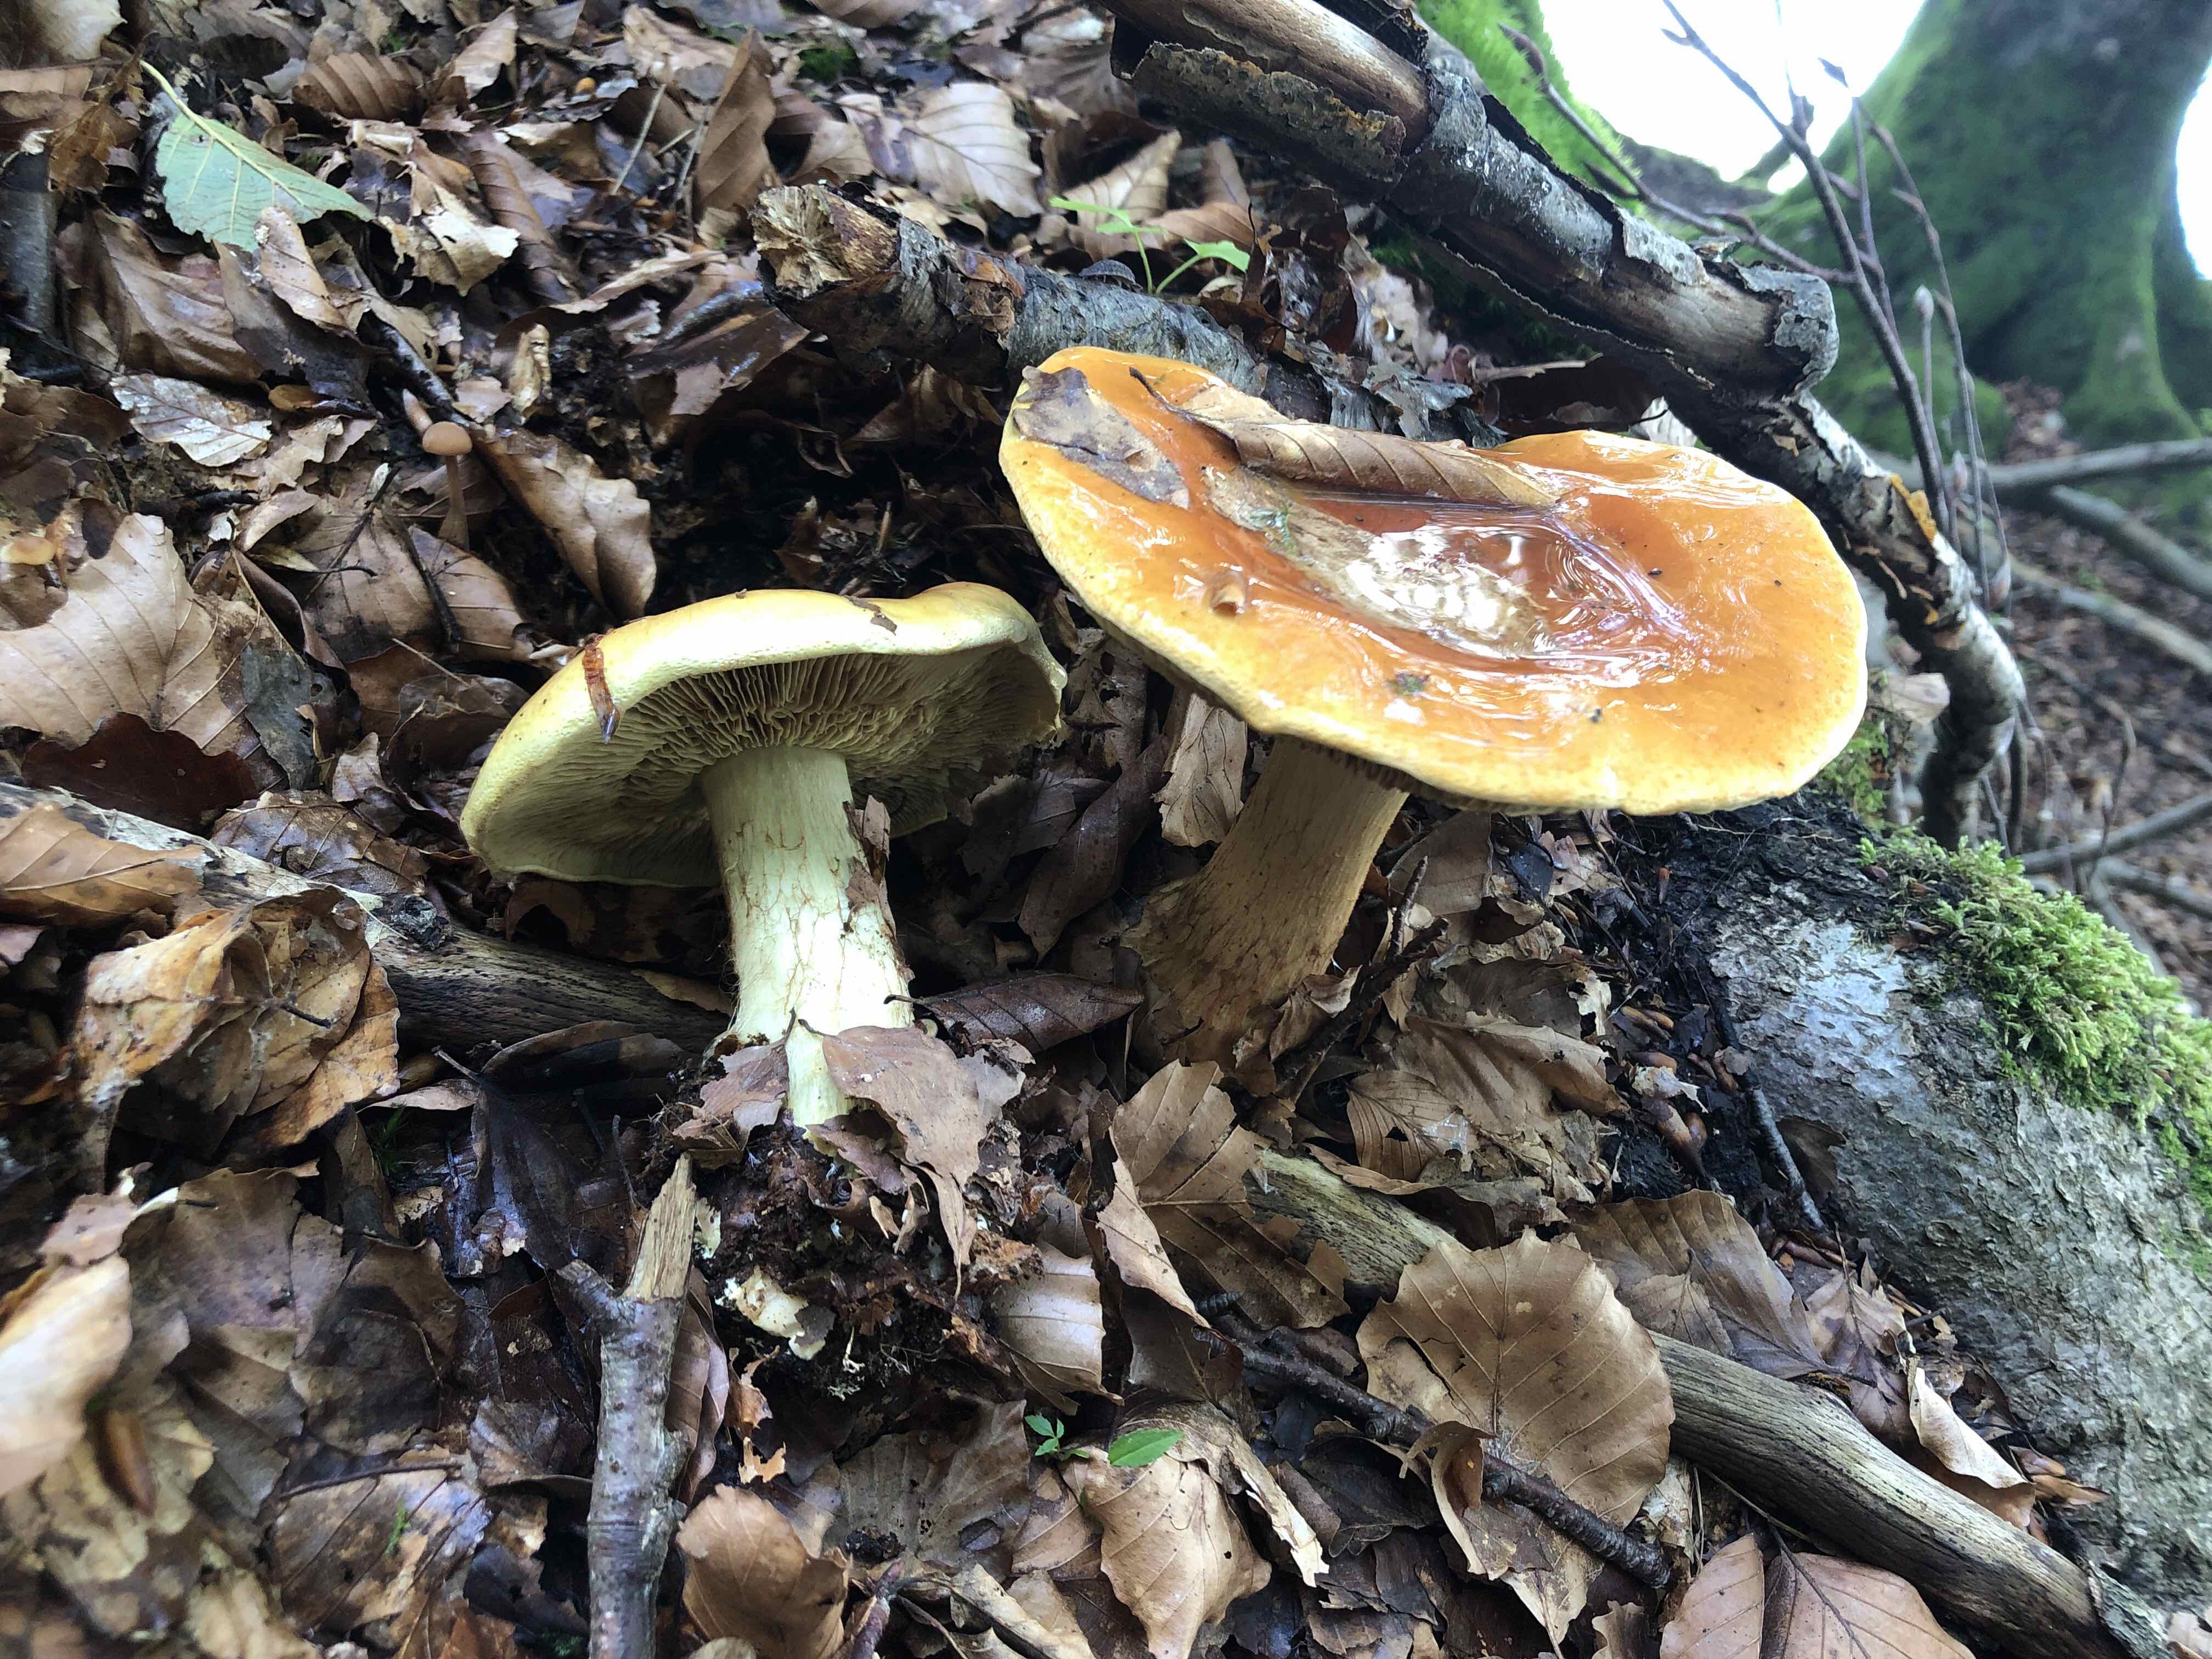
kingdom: Fungi
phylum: Basidiomycota
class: Agaricomycetes
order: Agaricales
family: Cortinariaceae
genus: Calonarius
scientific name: Calonarius elegantissimus
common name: orangegylden slørhat
